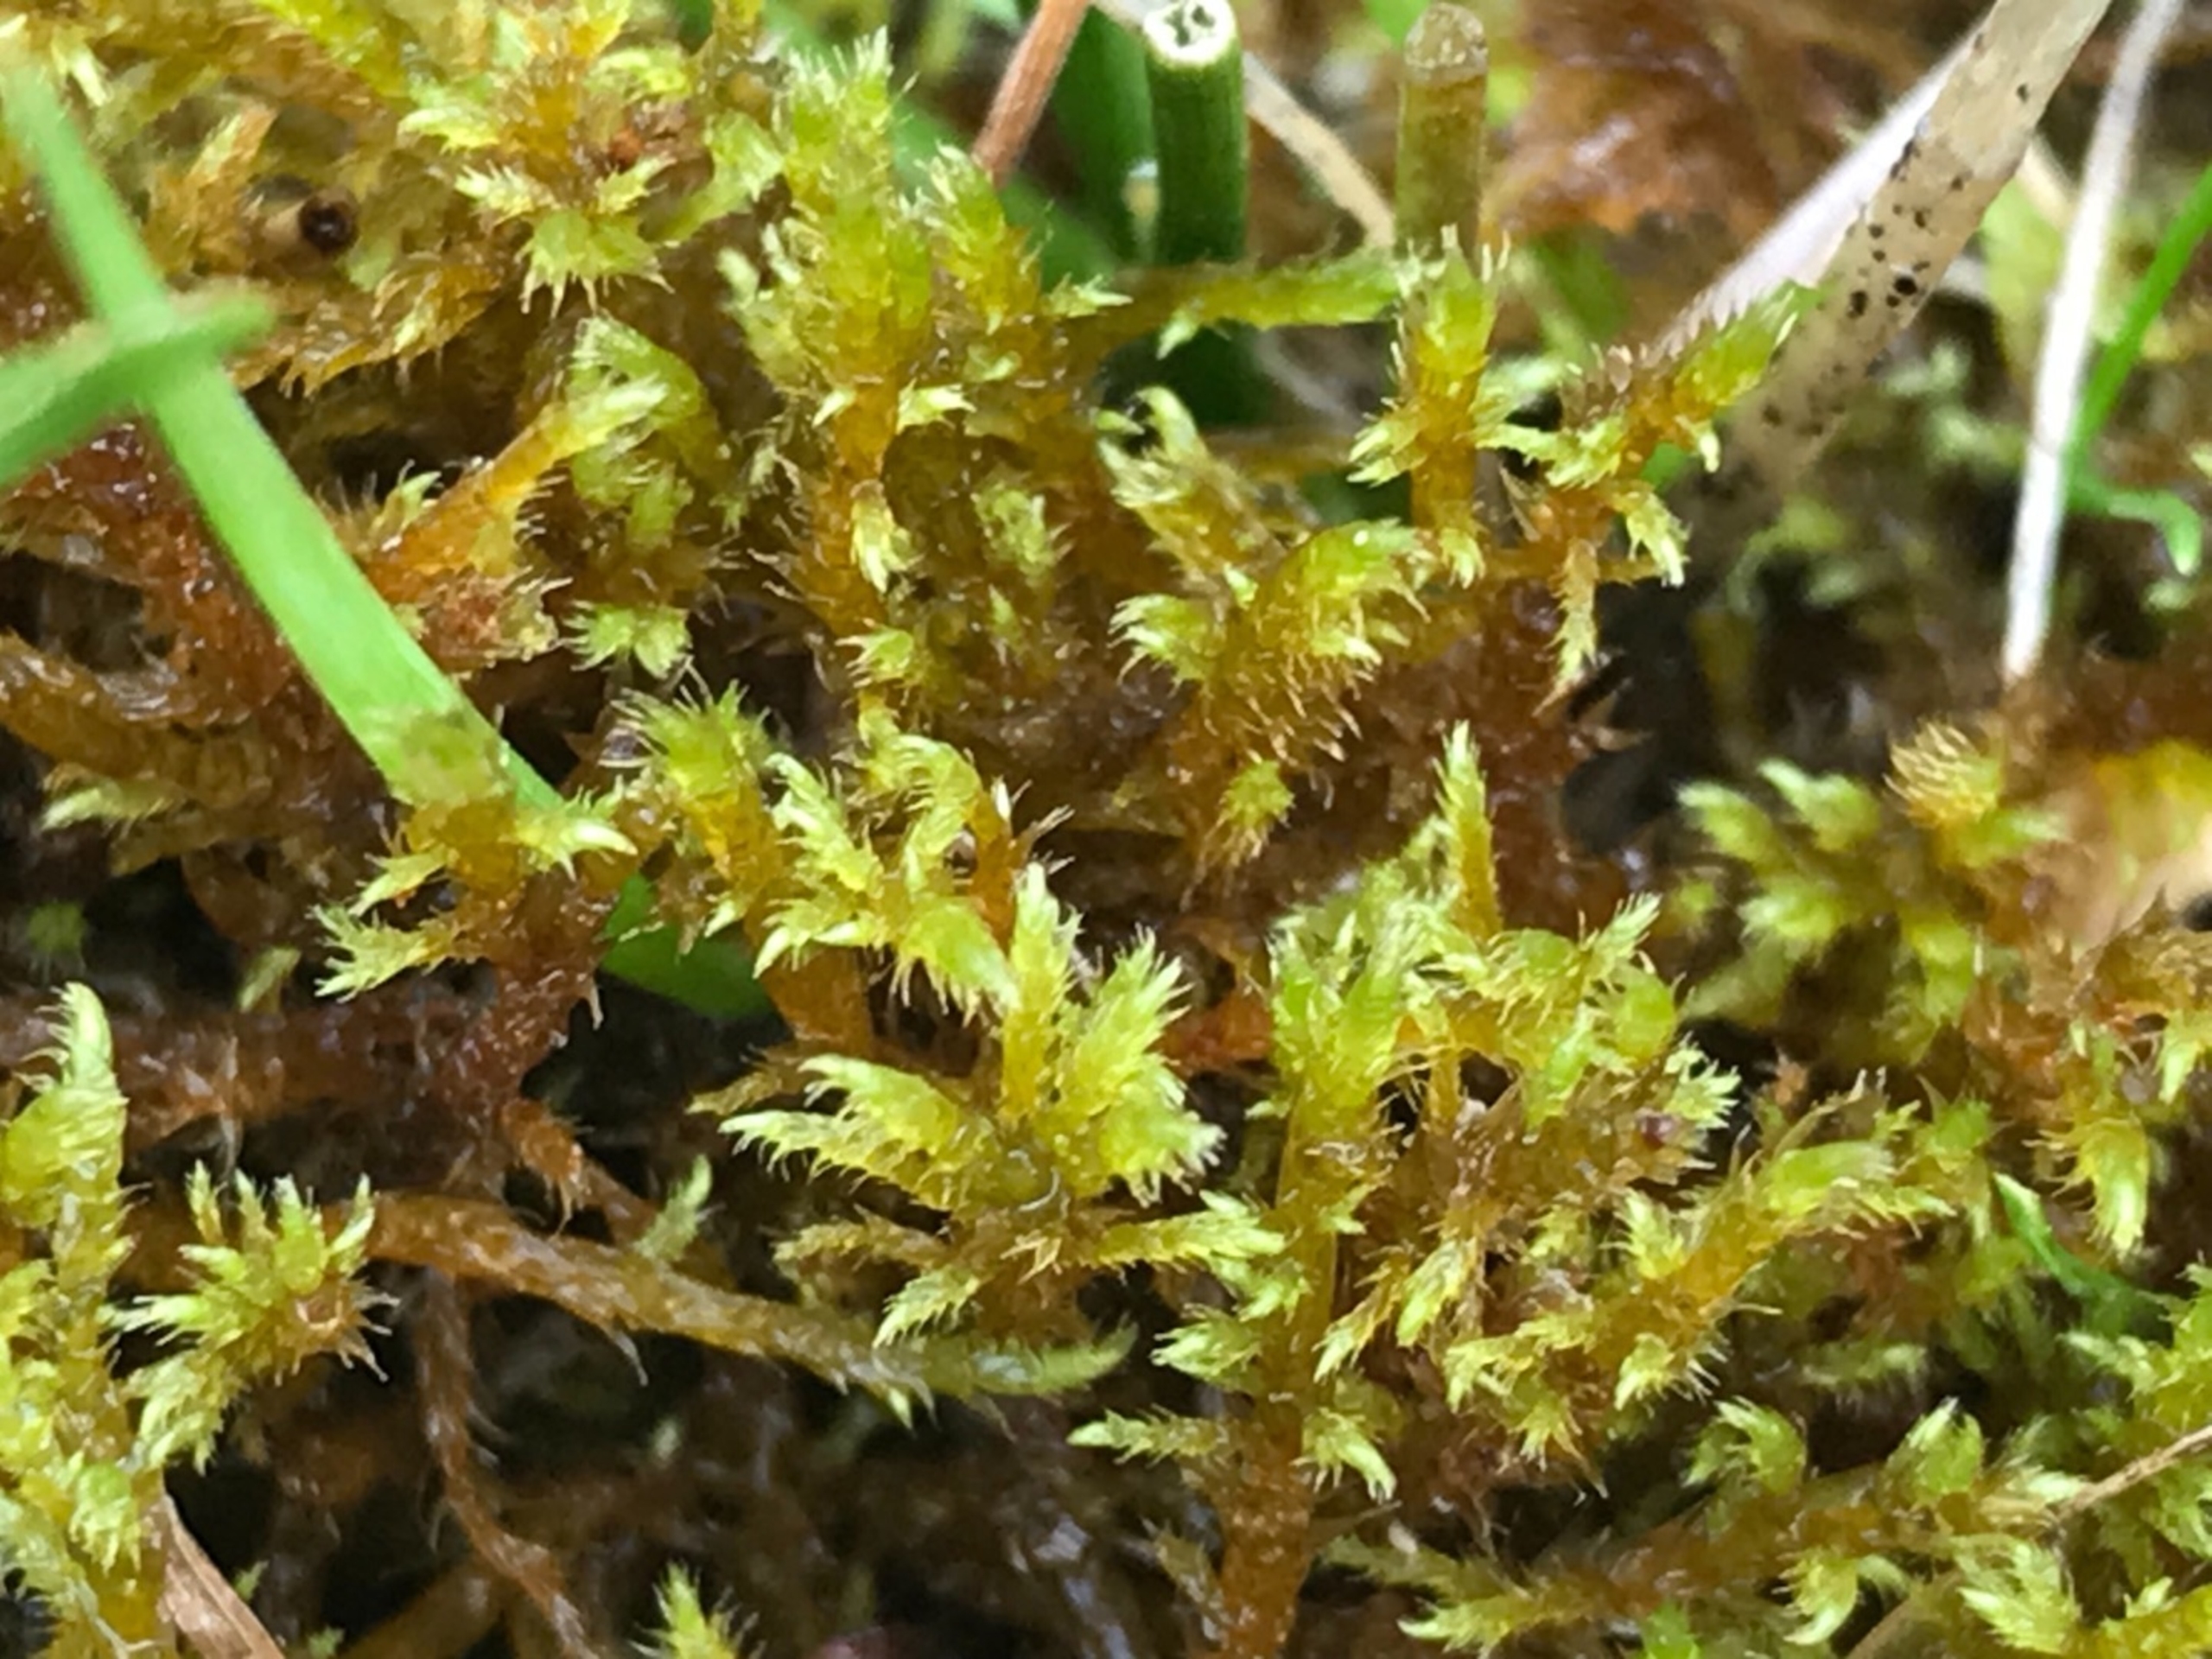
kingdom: Plantae
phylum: Bryophyta
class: Bryopsida
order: Hypnales
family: Amblystegiaceae
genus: Cratoneuron
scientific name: Cratoneuron filicinum
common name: Grøn eremitmos
